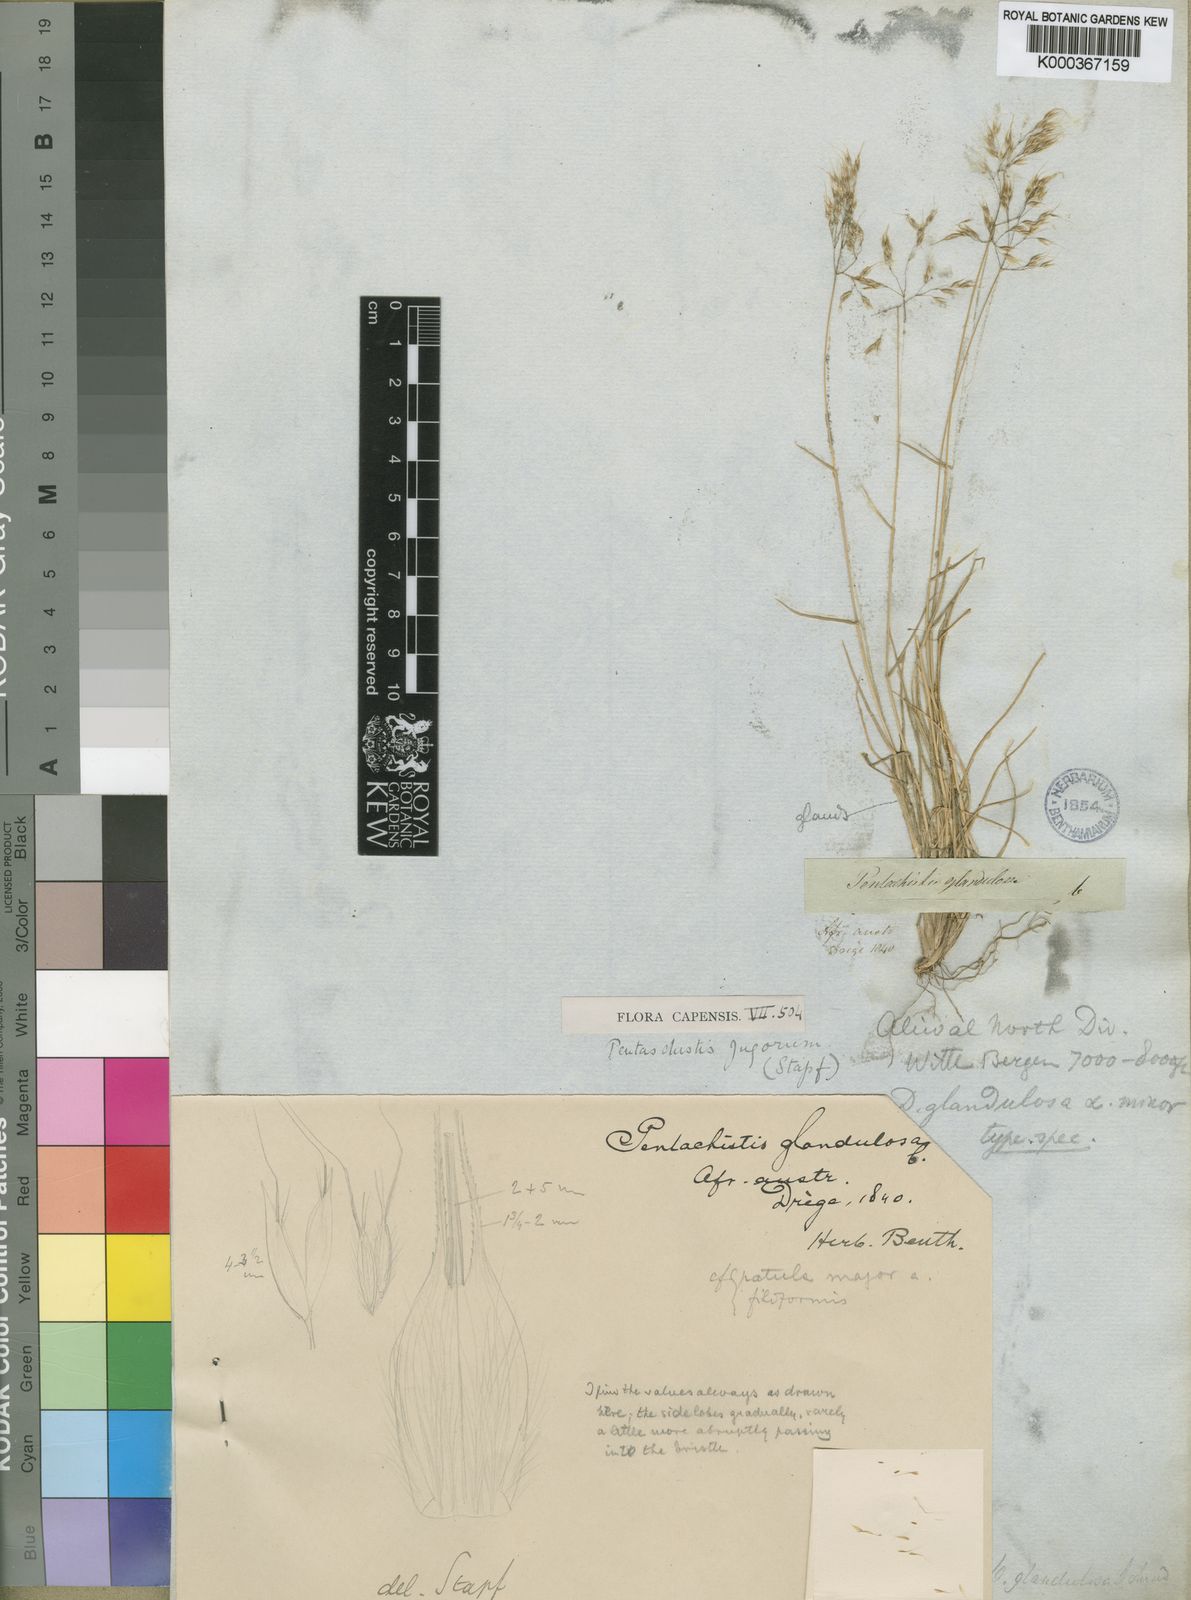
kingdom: Plantae
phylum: Tracheophyta
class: Liliopsida
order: Poales
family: Poaceae
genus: Pentameris
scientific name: Pentameris airoides
